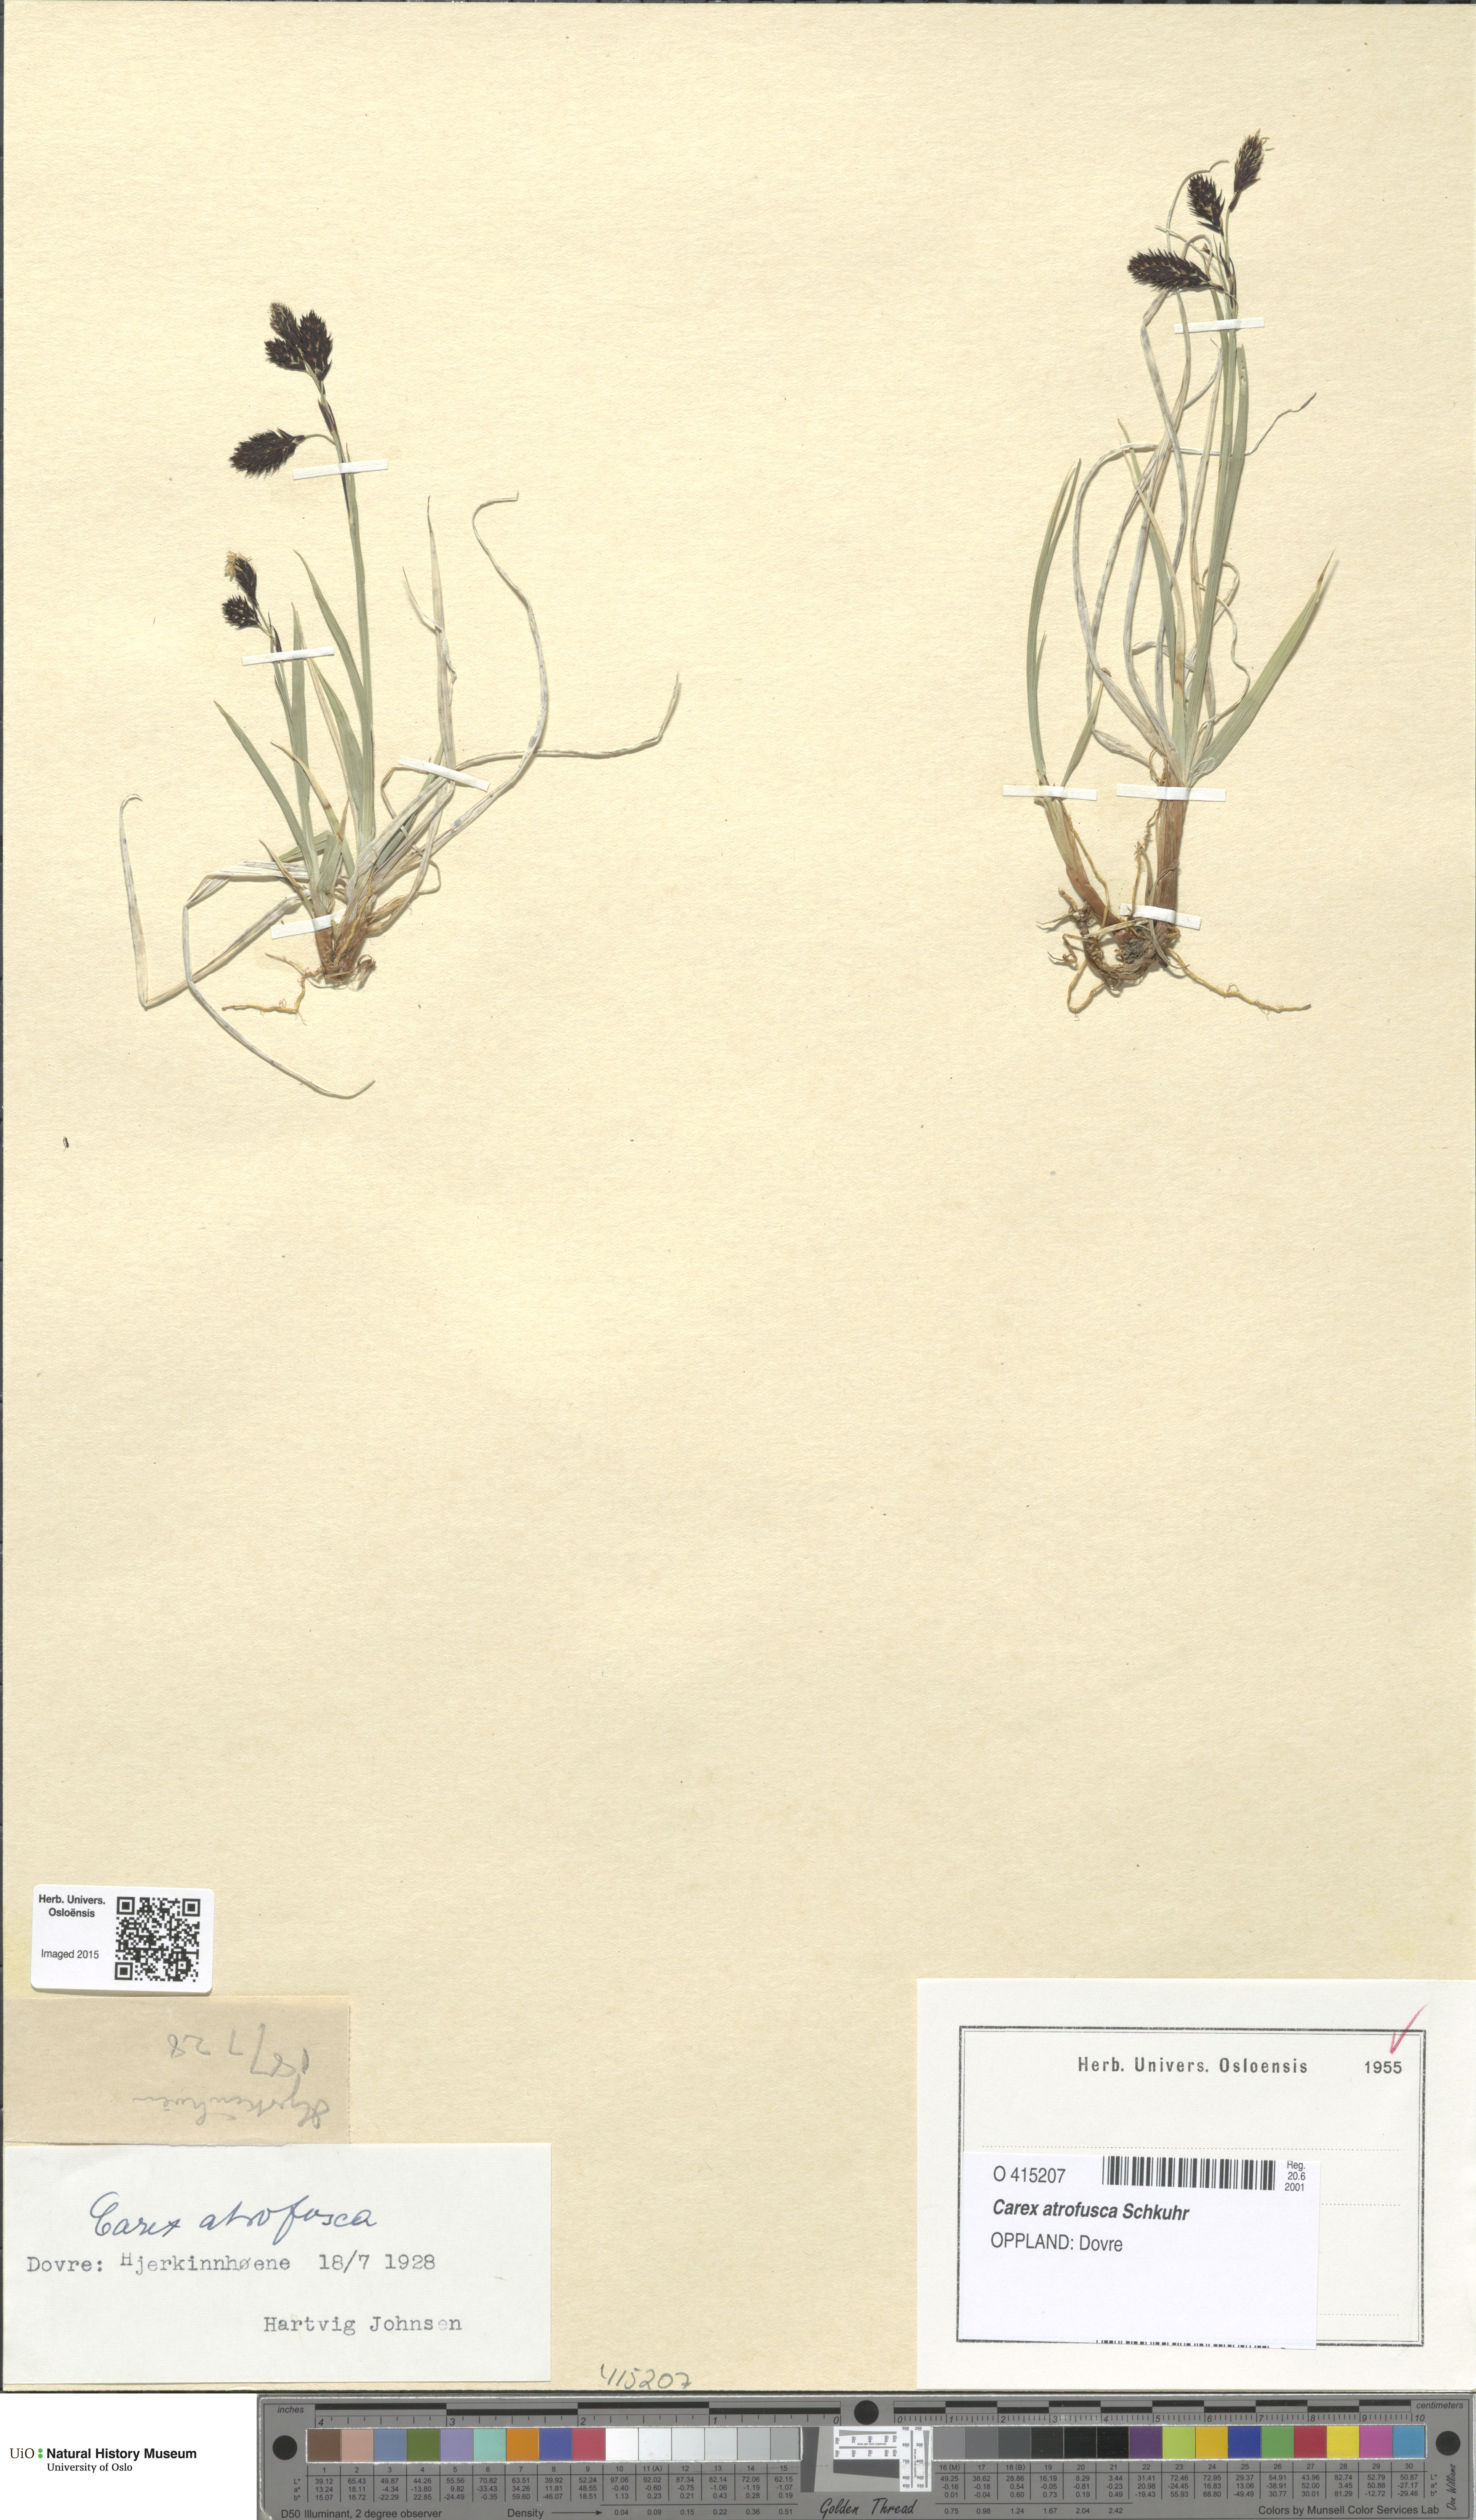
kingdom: Plantae
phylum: Tracheophyta
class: Liliopsida
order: Poales
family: Cyperaceae
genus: Carex
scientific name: Carex atrofusca
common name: Scorched alpine-sedge
